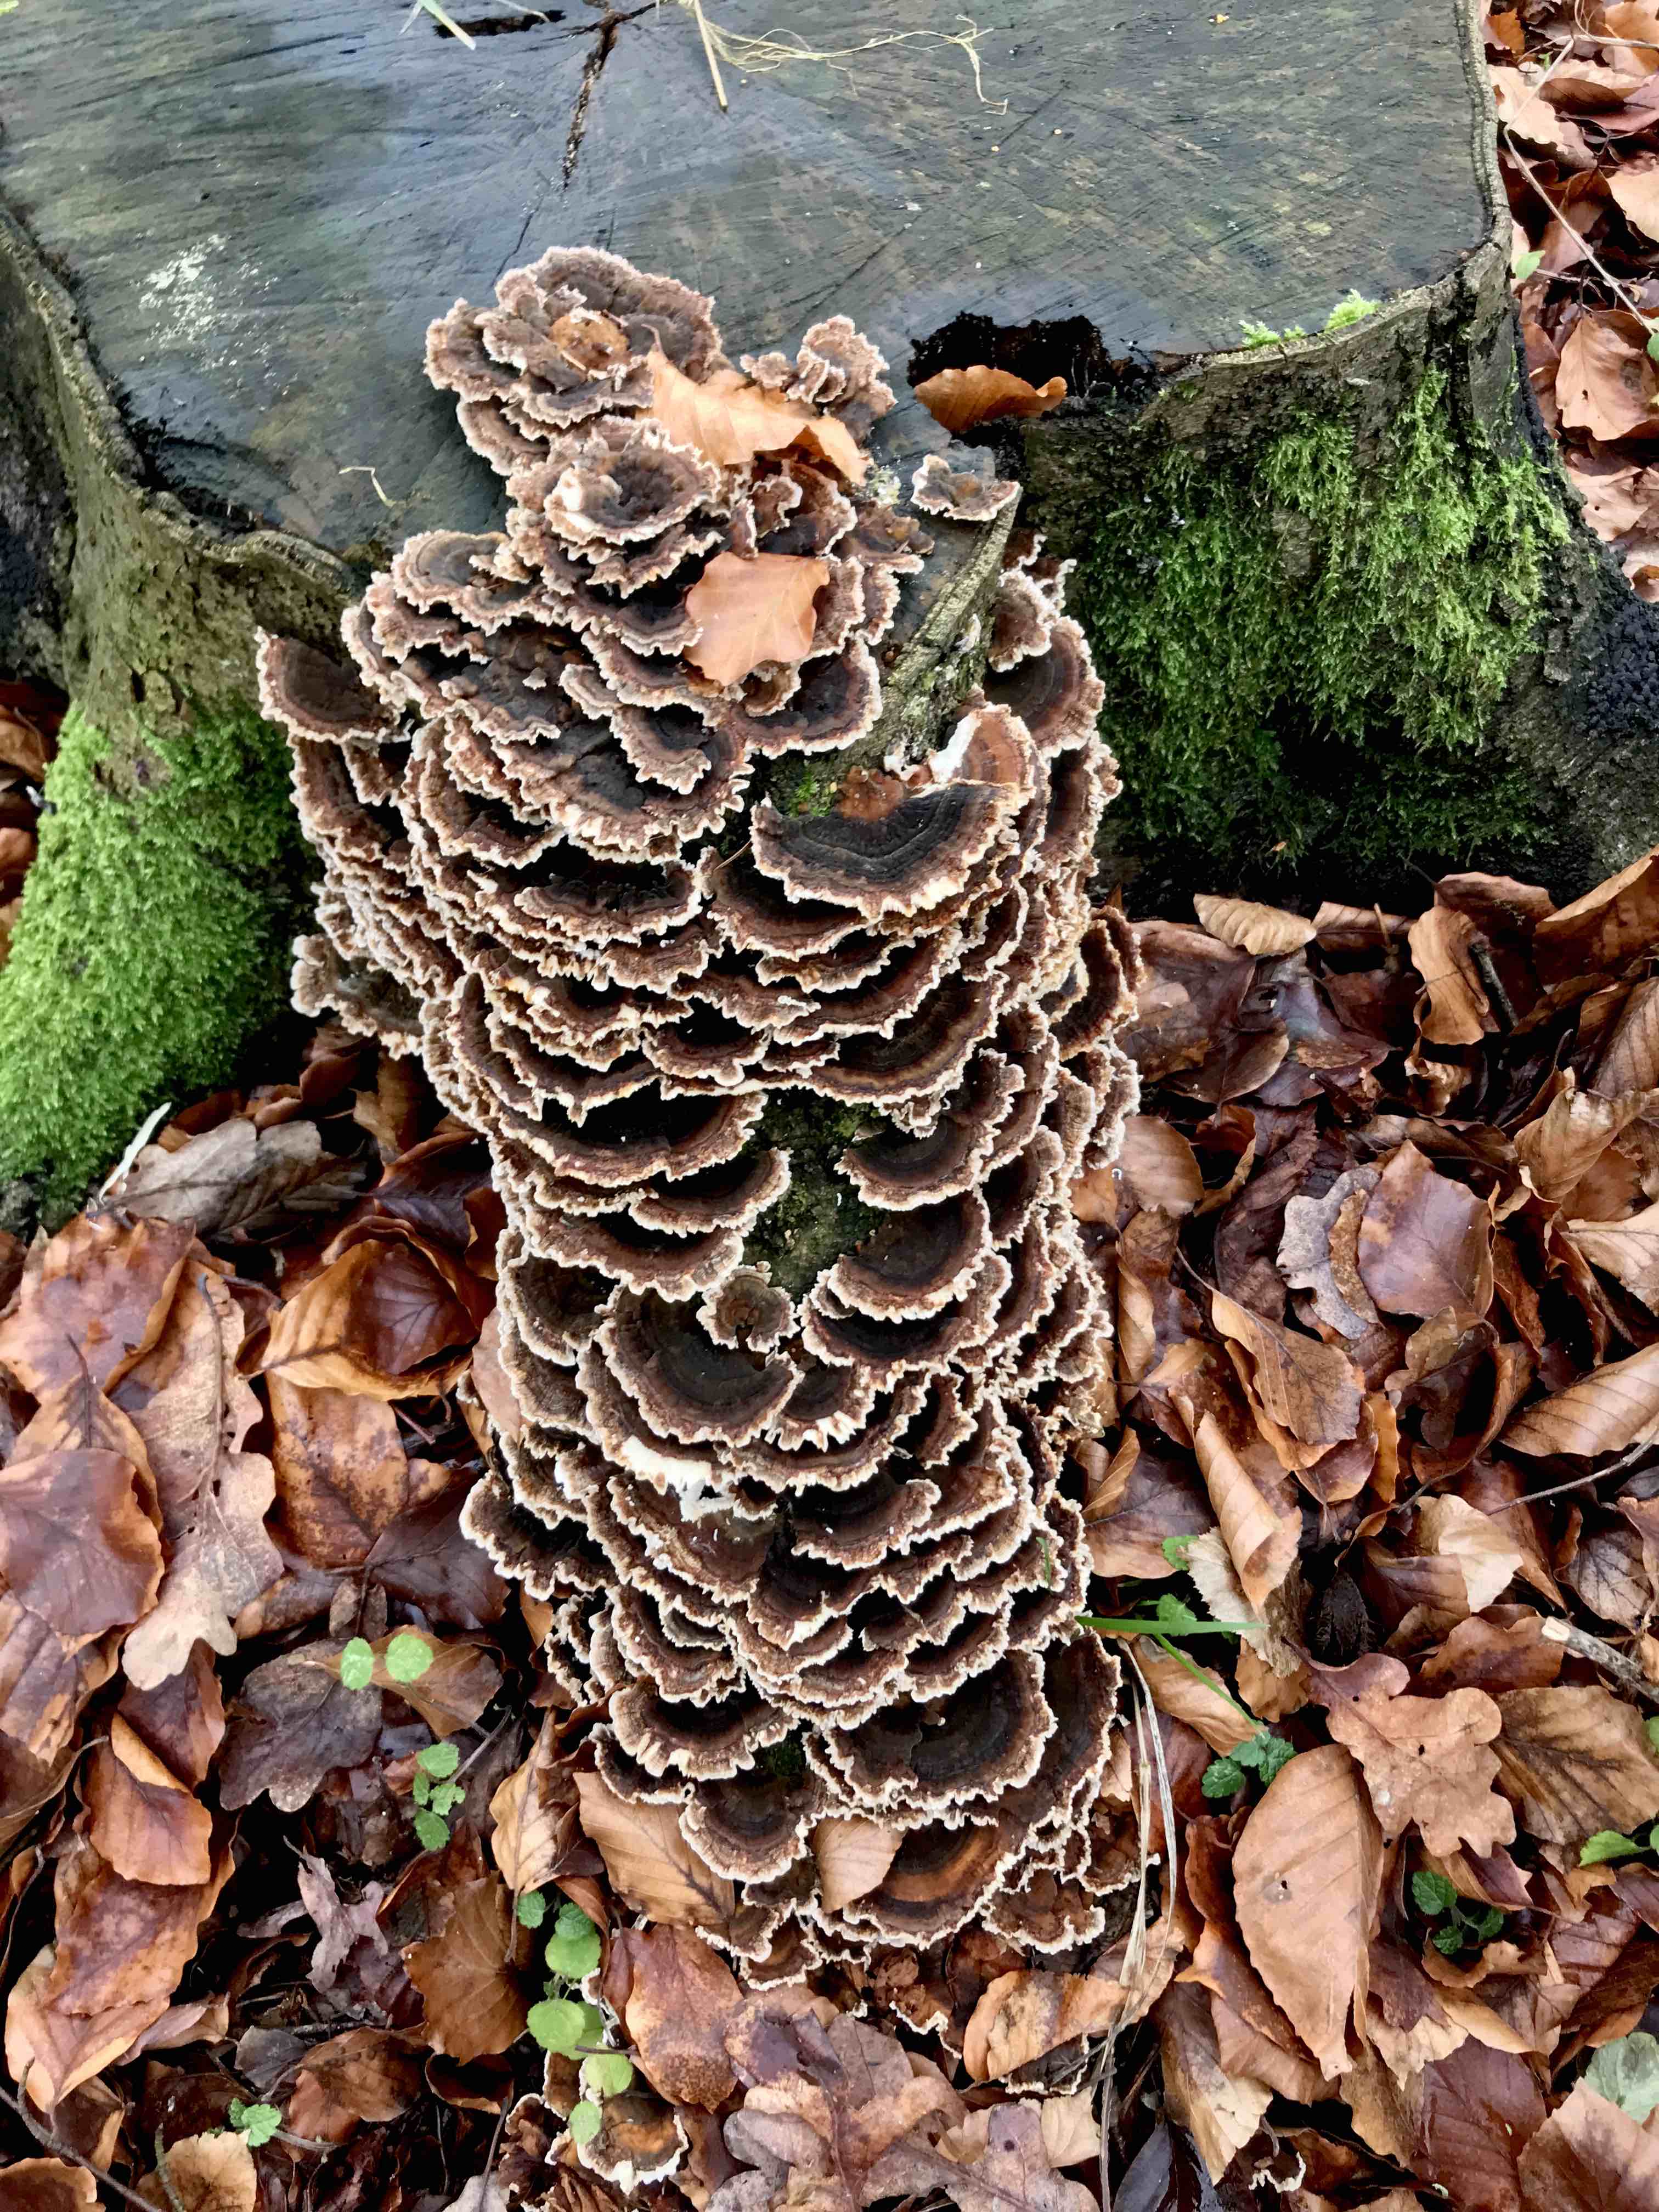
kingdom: Fungi
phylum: Basidiomycota
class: Agaricomycetes
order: Polyporales
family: Polyporaceae
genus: Trametes
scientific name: Trametes versicolor
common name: broget læderporesvamp
